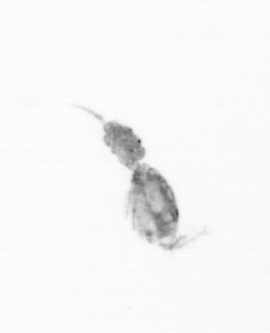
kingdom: Animalia
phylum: Arthropoda
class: Copepoda
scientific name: Copepoda
